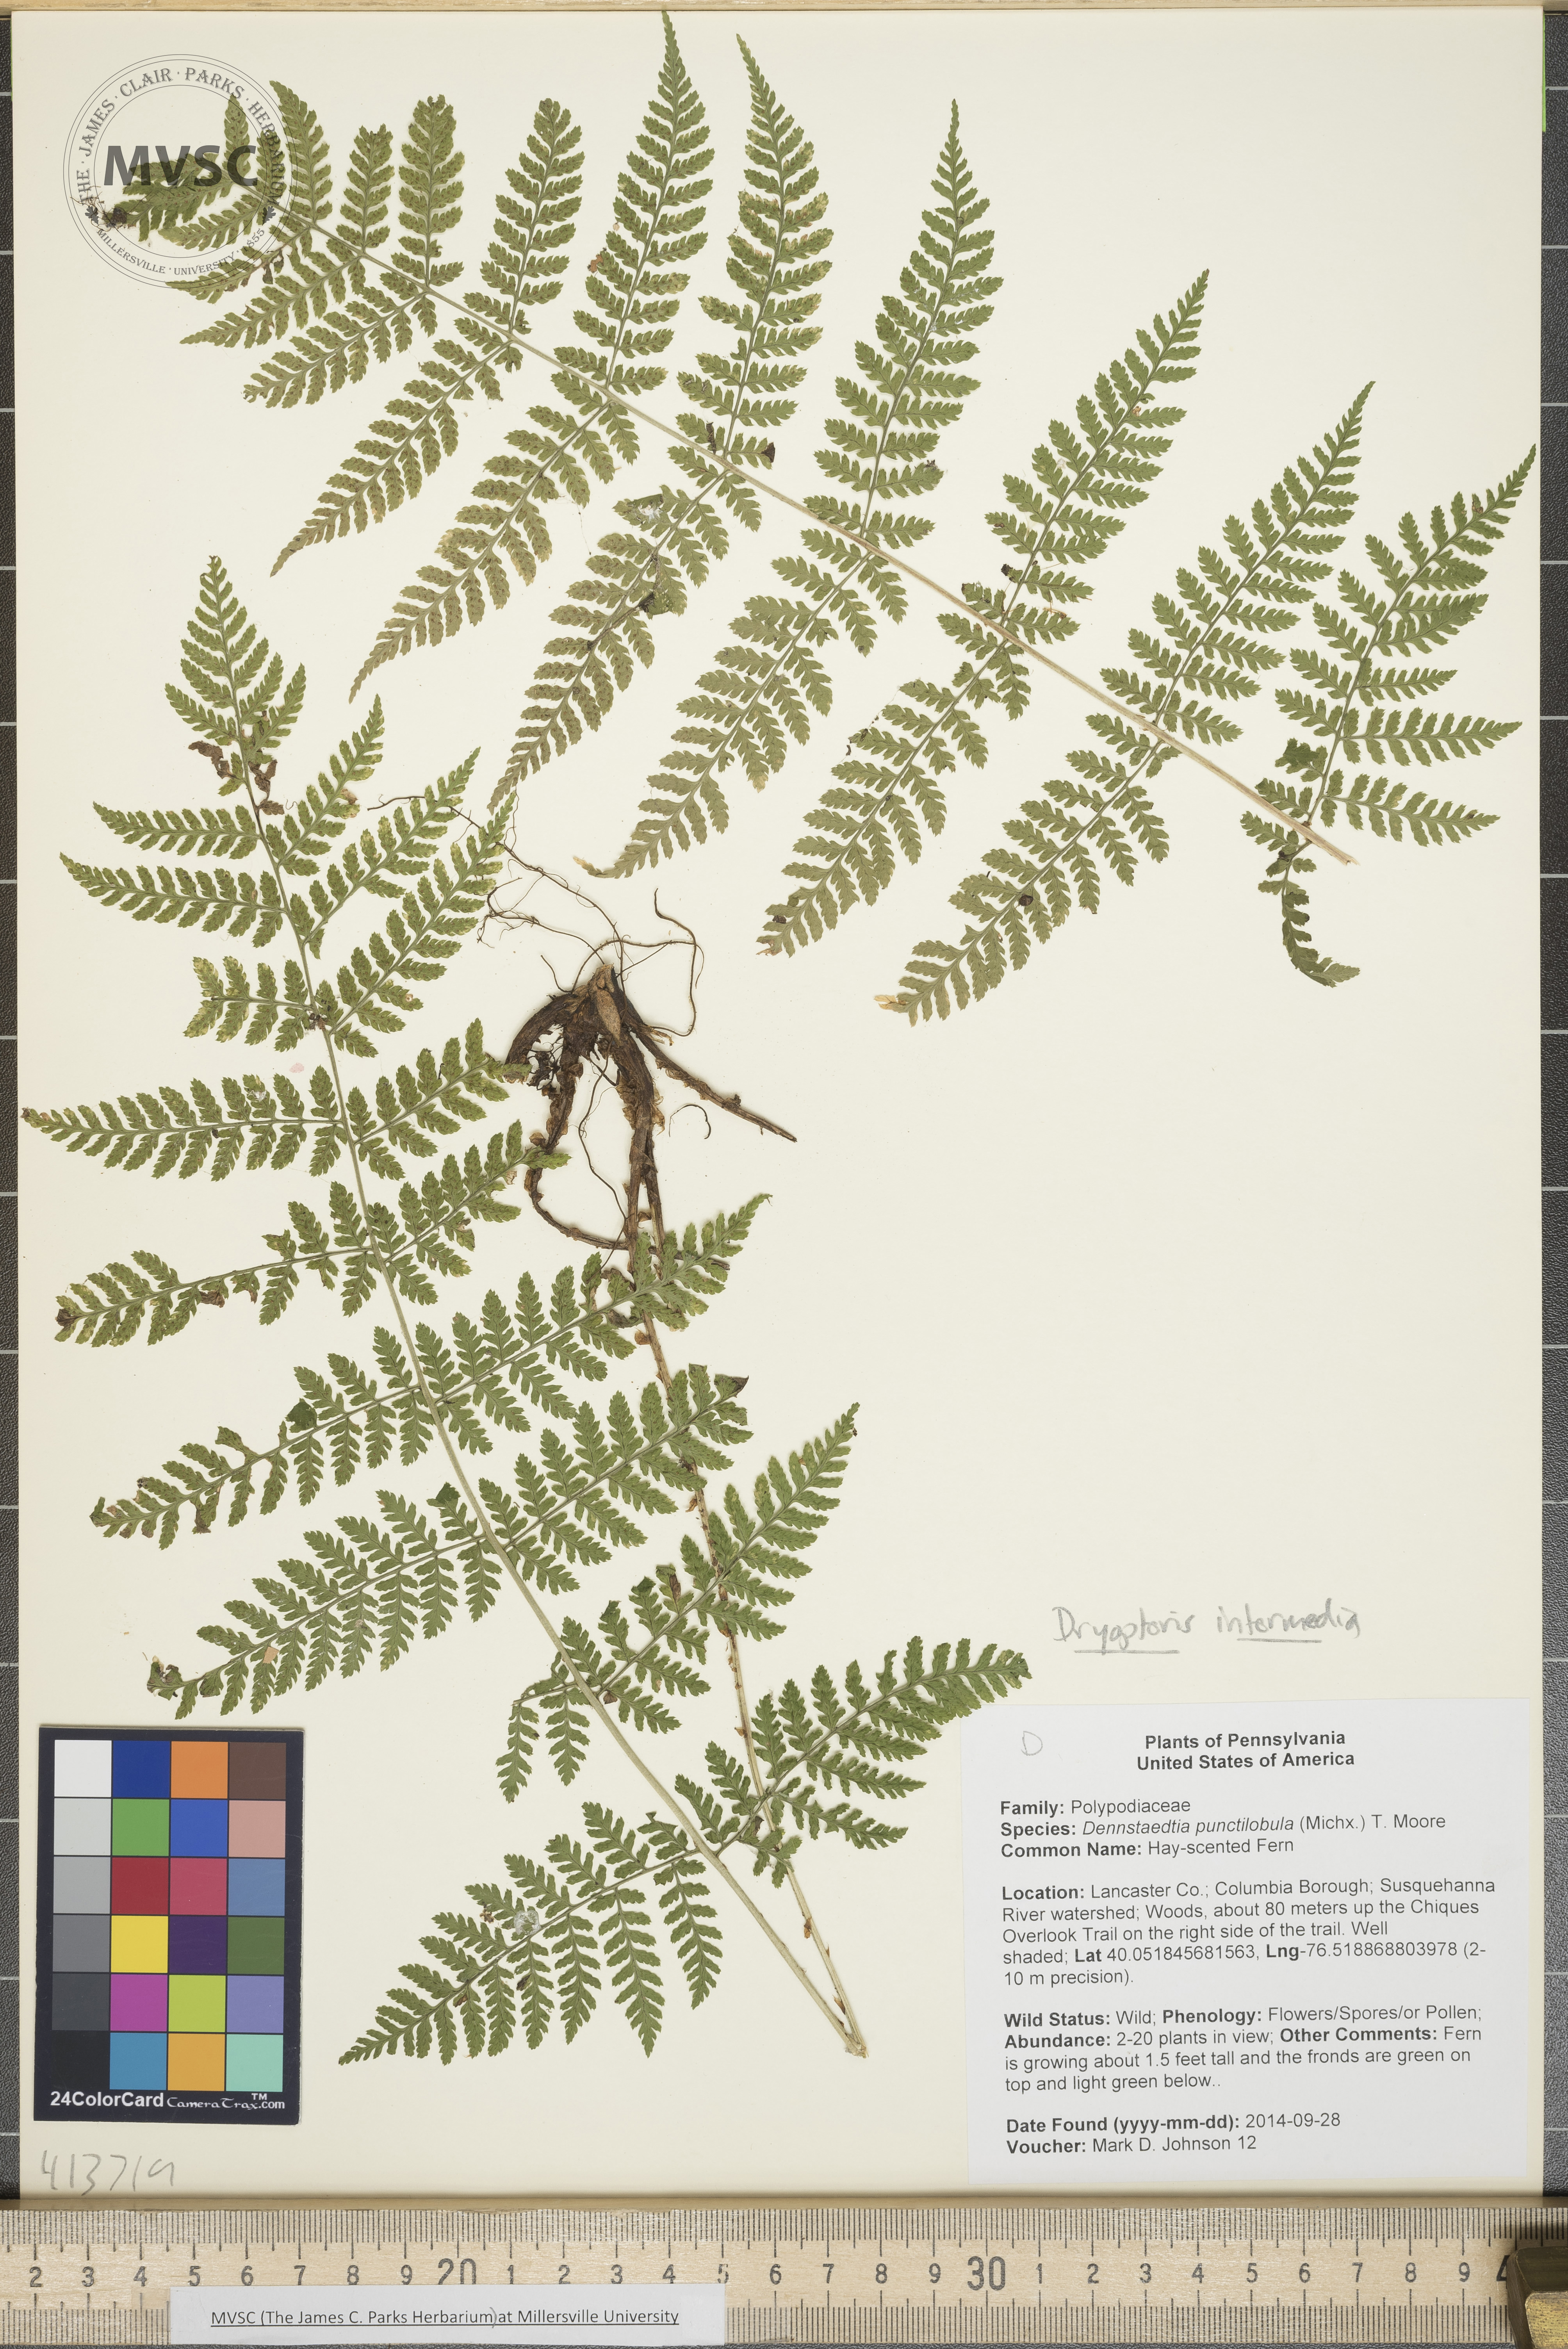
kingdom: Plantae
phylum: Tracheophyta
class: Polypodiopsida
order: Polypodiales
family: Dryopteridaceae
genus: Dryopteris
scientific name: Dryopteris intermedia
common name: Fancy wood fern
